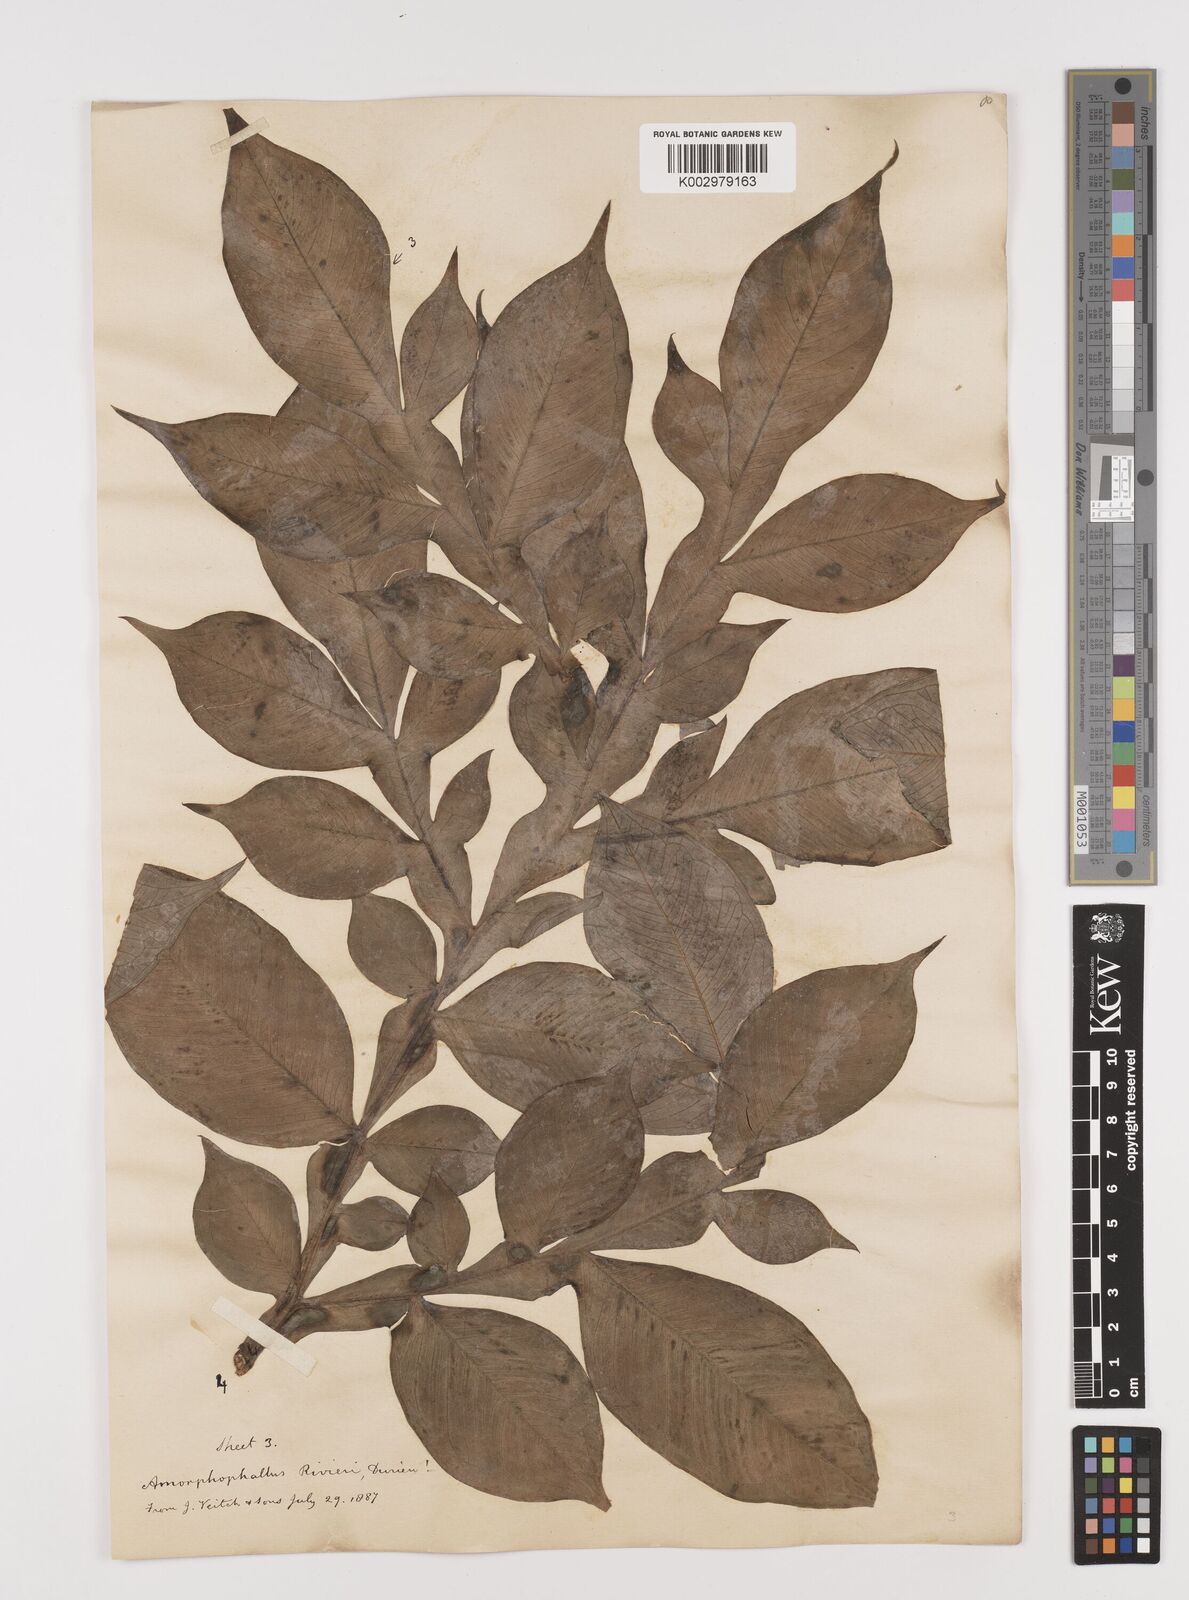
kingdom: Plantae
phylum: Tracheophyta
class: Liliopsida
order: Alismatales
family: Araceae
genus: Amorphophallus
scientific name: Amorphophallus konjac
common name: Umbrella arum
